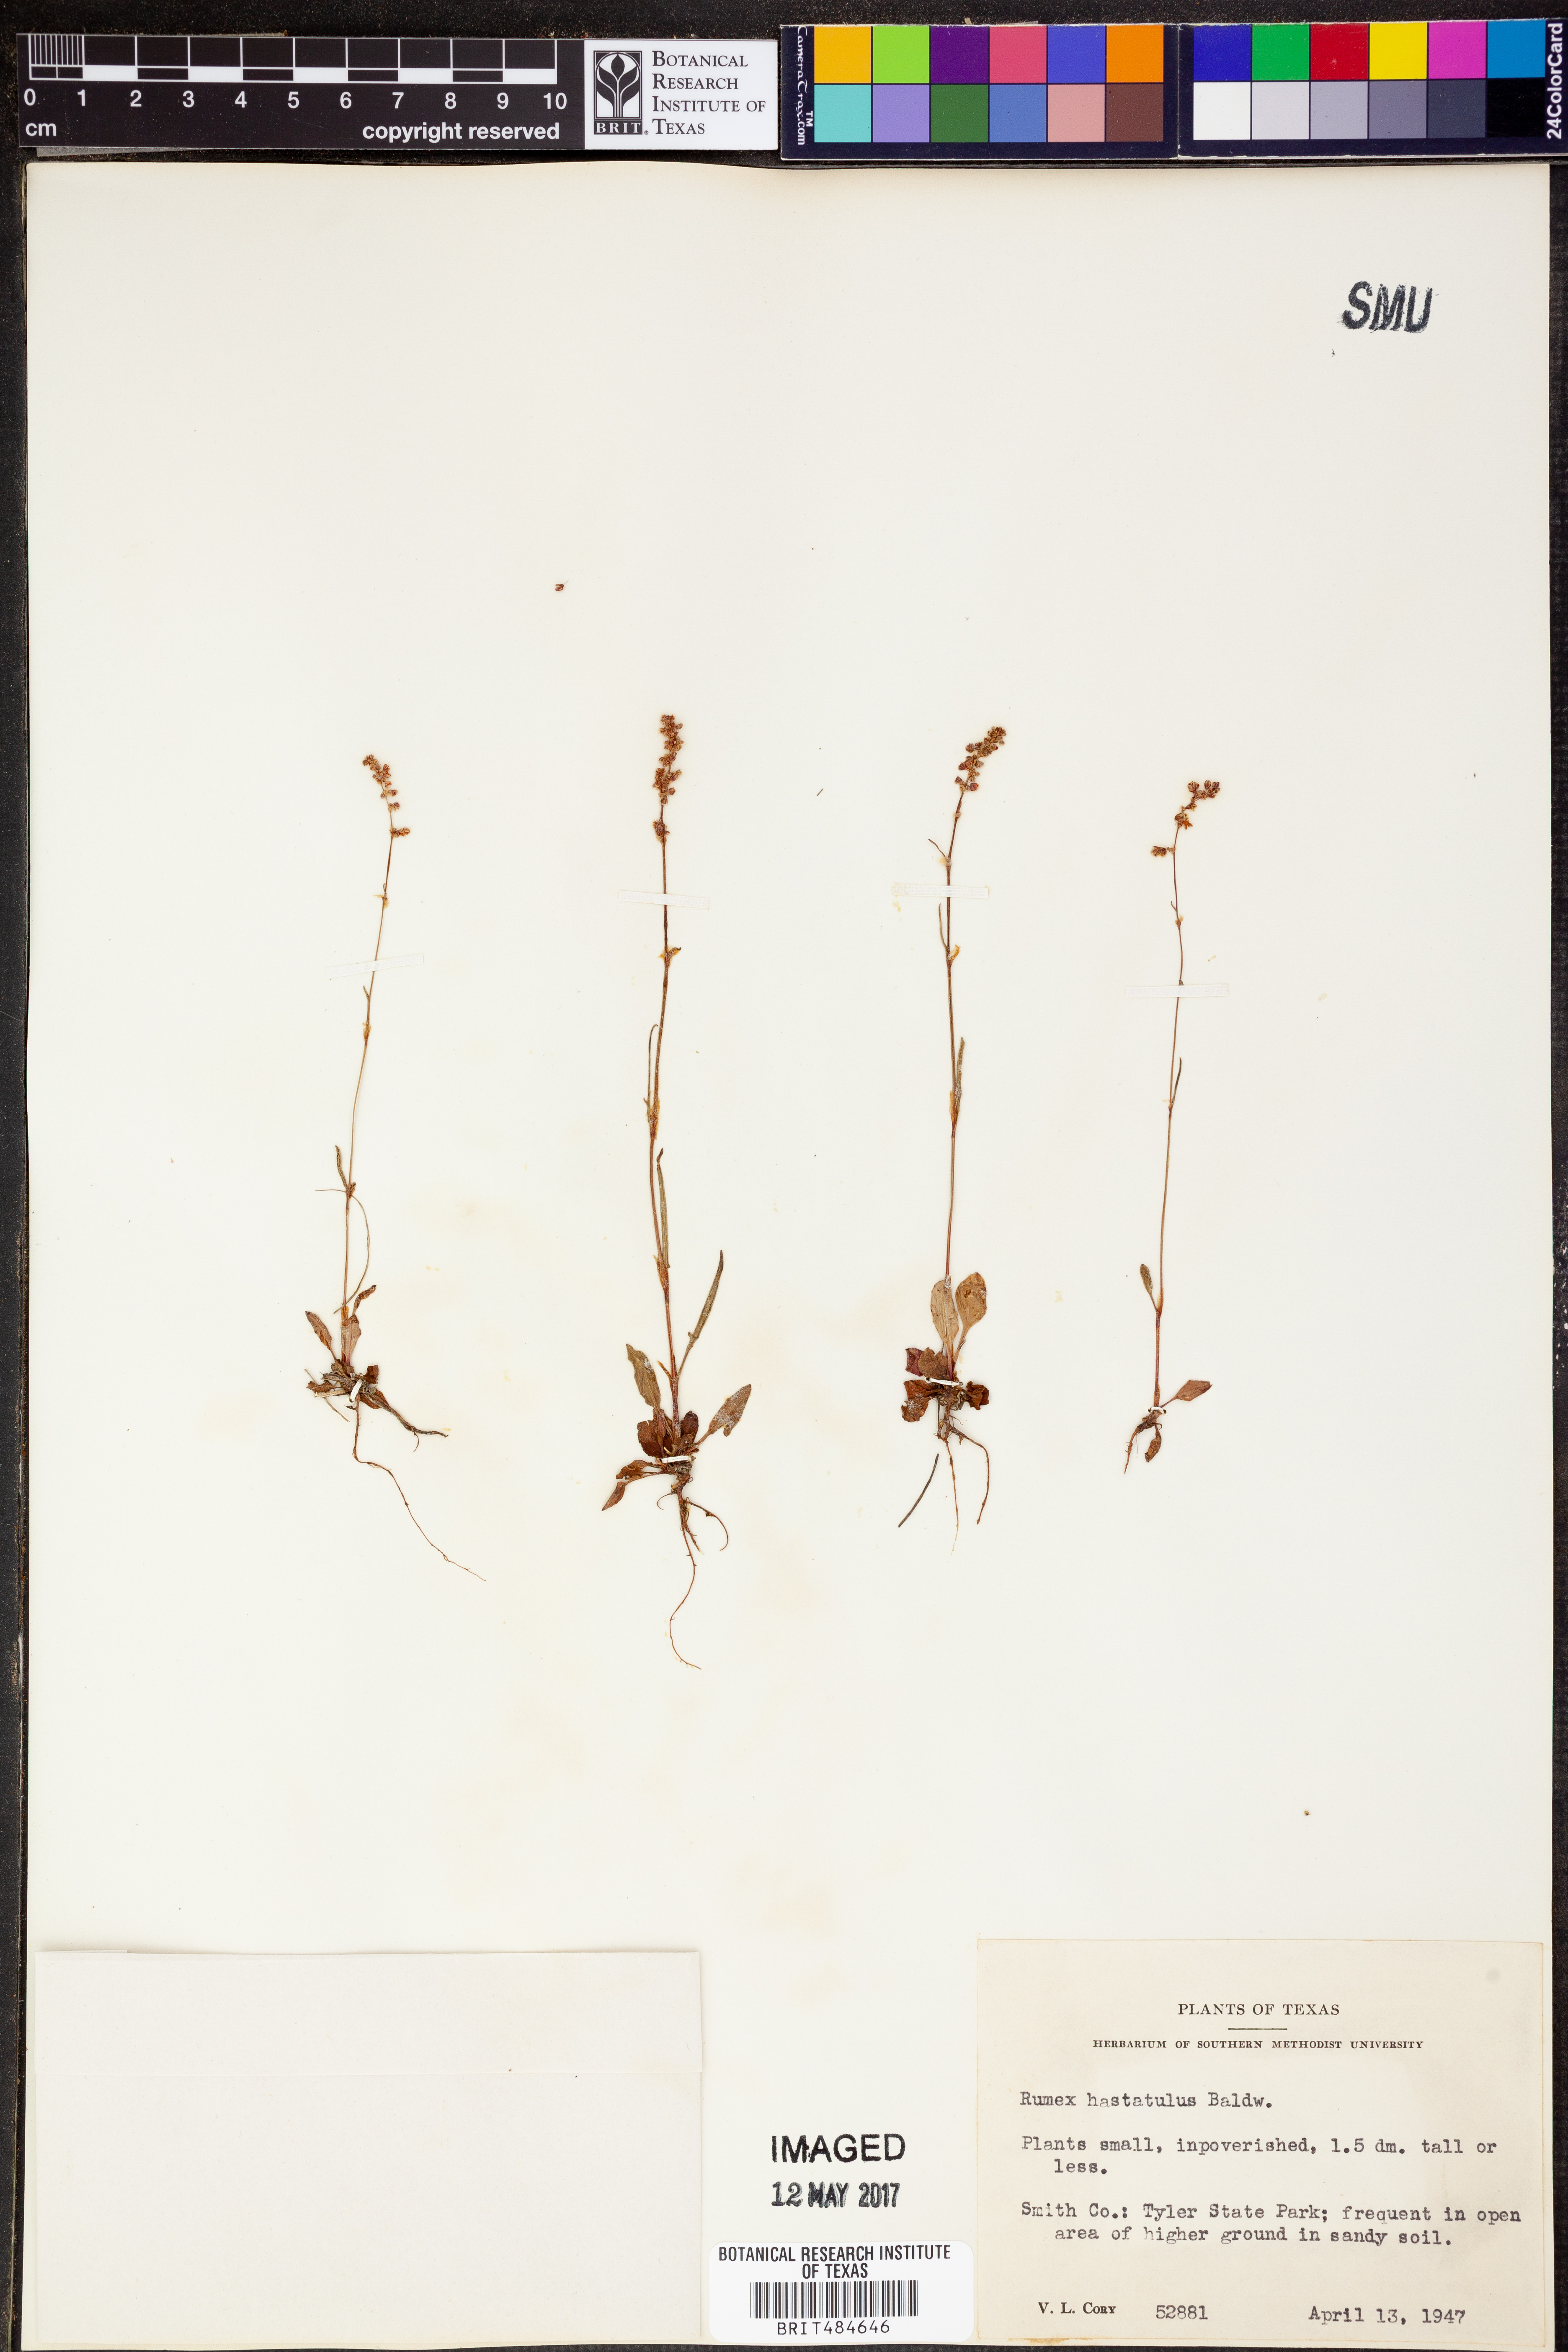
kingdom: Plantae
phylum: Tracheophyta
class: Magnoliopsida
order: Caryophyllales
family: Polygonaceae
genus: Rumex
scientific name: Rumex hastatulus
